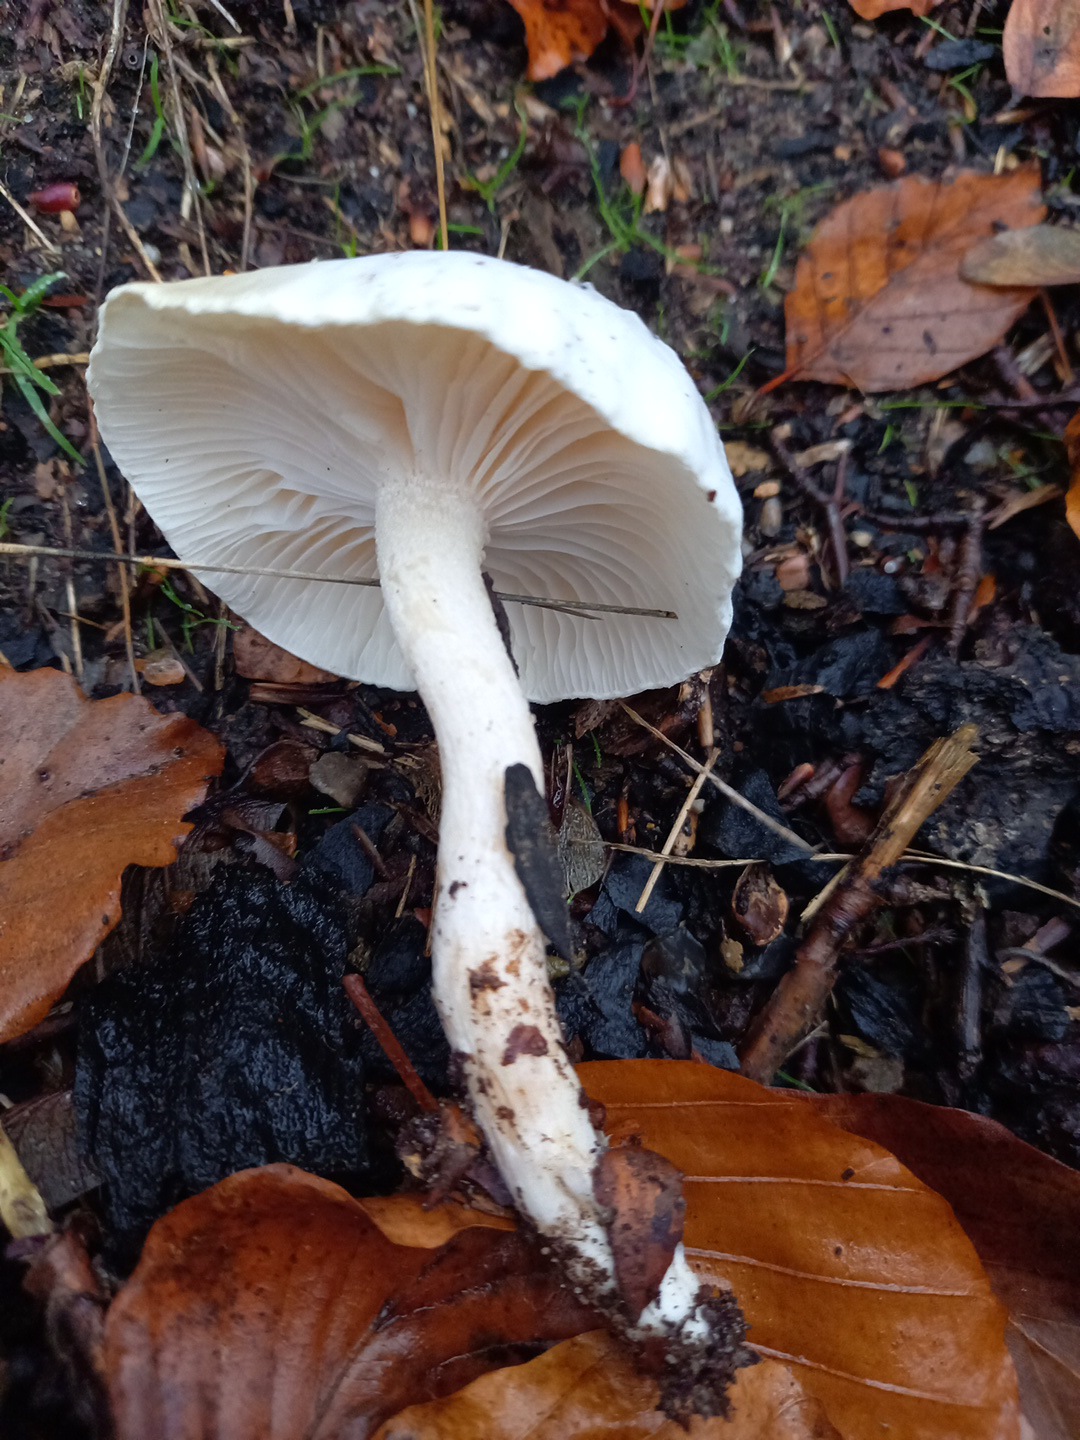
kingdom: Fungi
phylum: Basidiomycota
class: Agaricomycetes
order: Agaricales
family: Hygrophoraceae
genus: Hygrophorus
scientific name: Hygrophorus eburneus
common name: elfenbens-sneglehat
